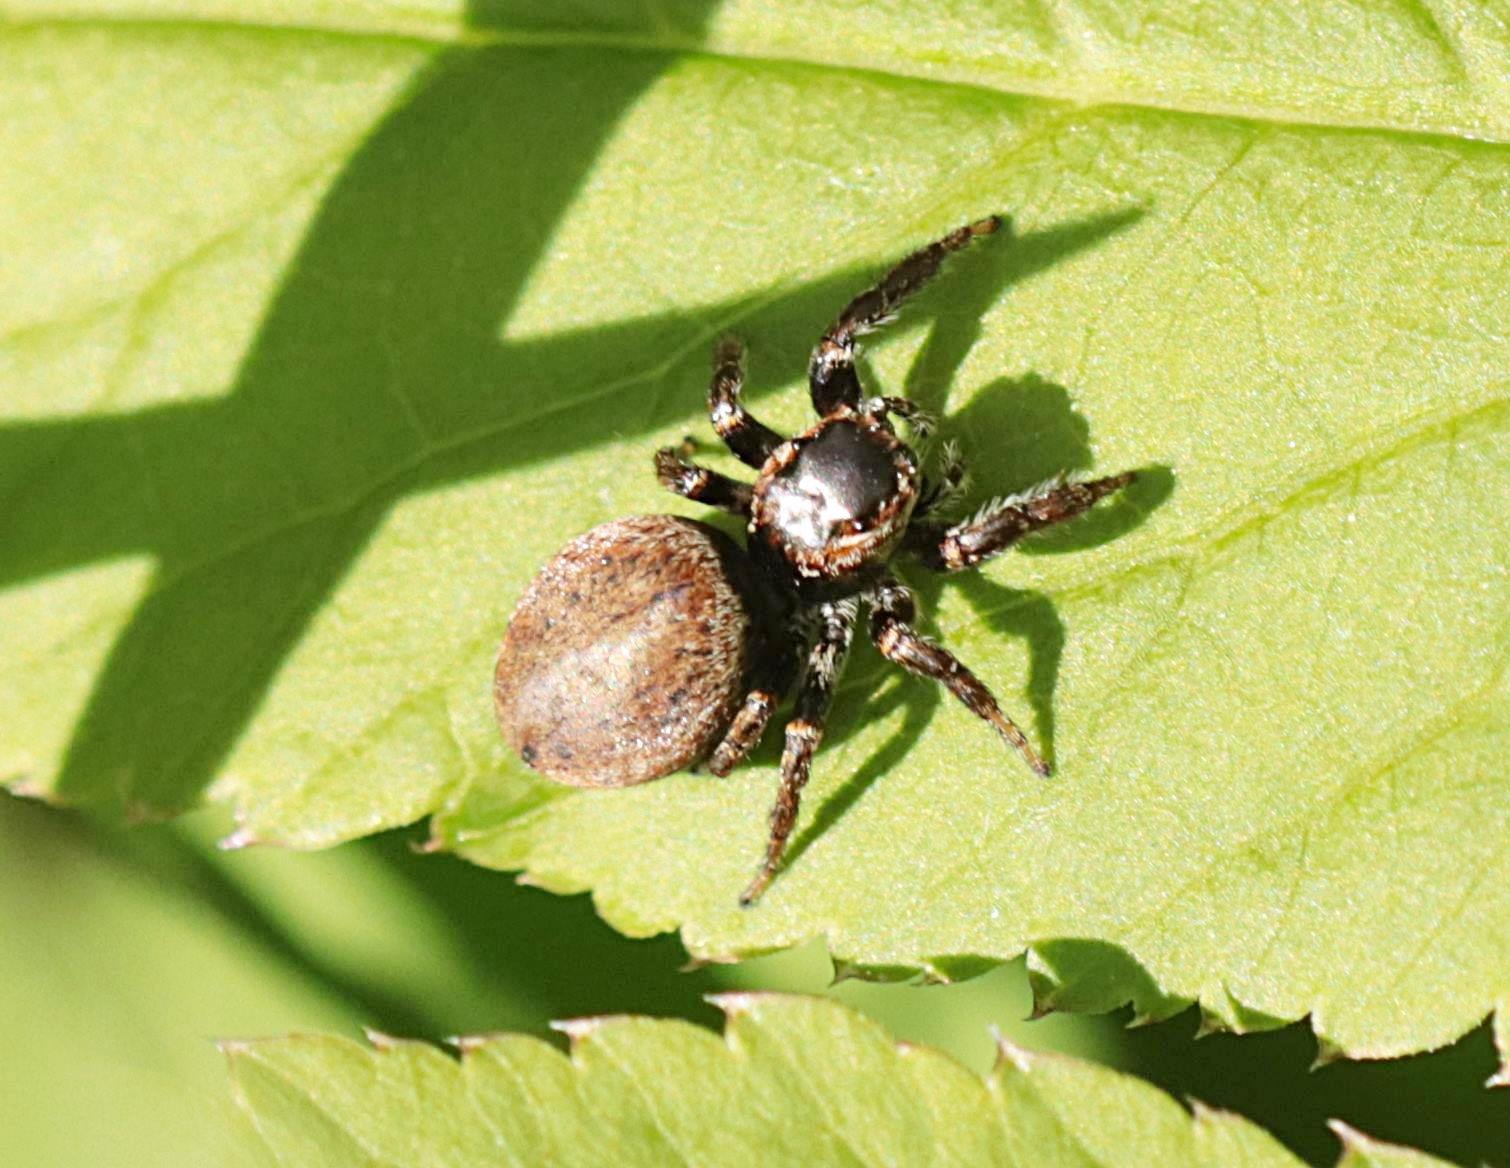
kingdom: Animalia
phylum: Arthropoda
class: Arachnida
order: Araneae
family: Salticidae
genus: Evarcha
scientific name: Evarcha falcata
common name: Broget springedderkop
